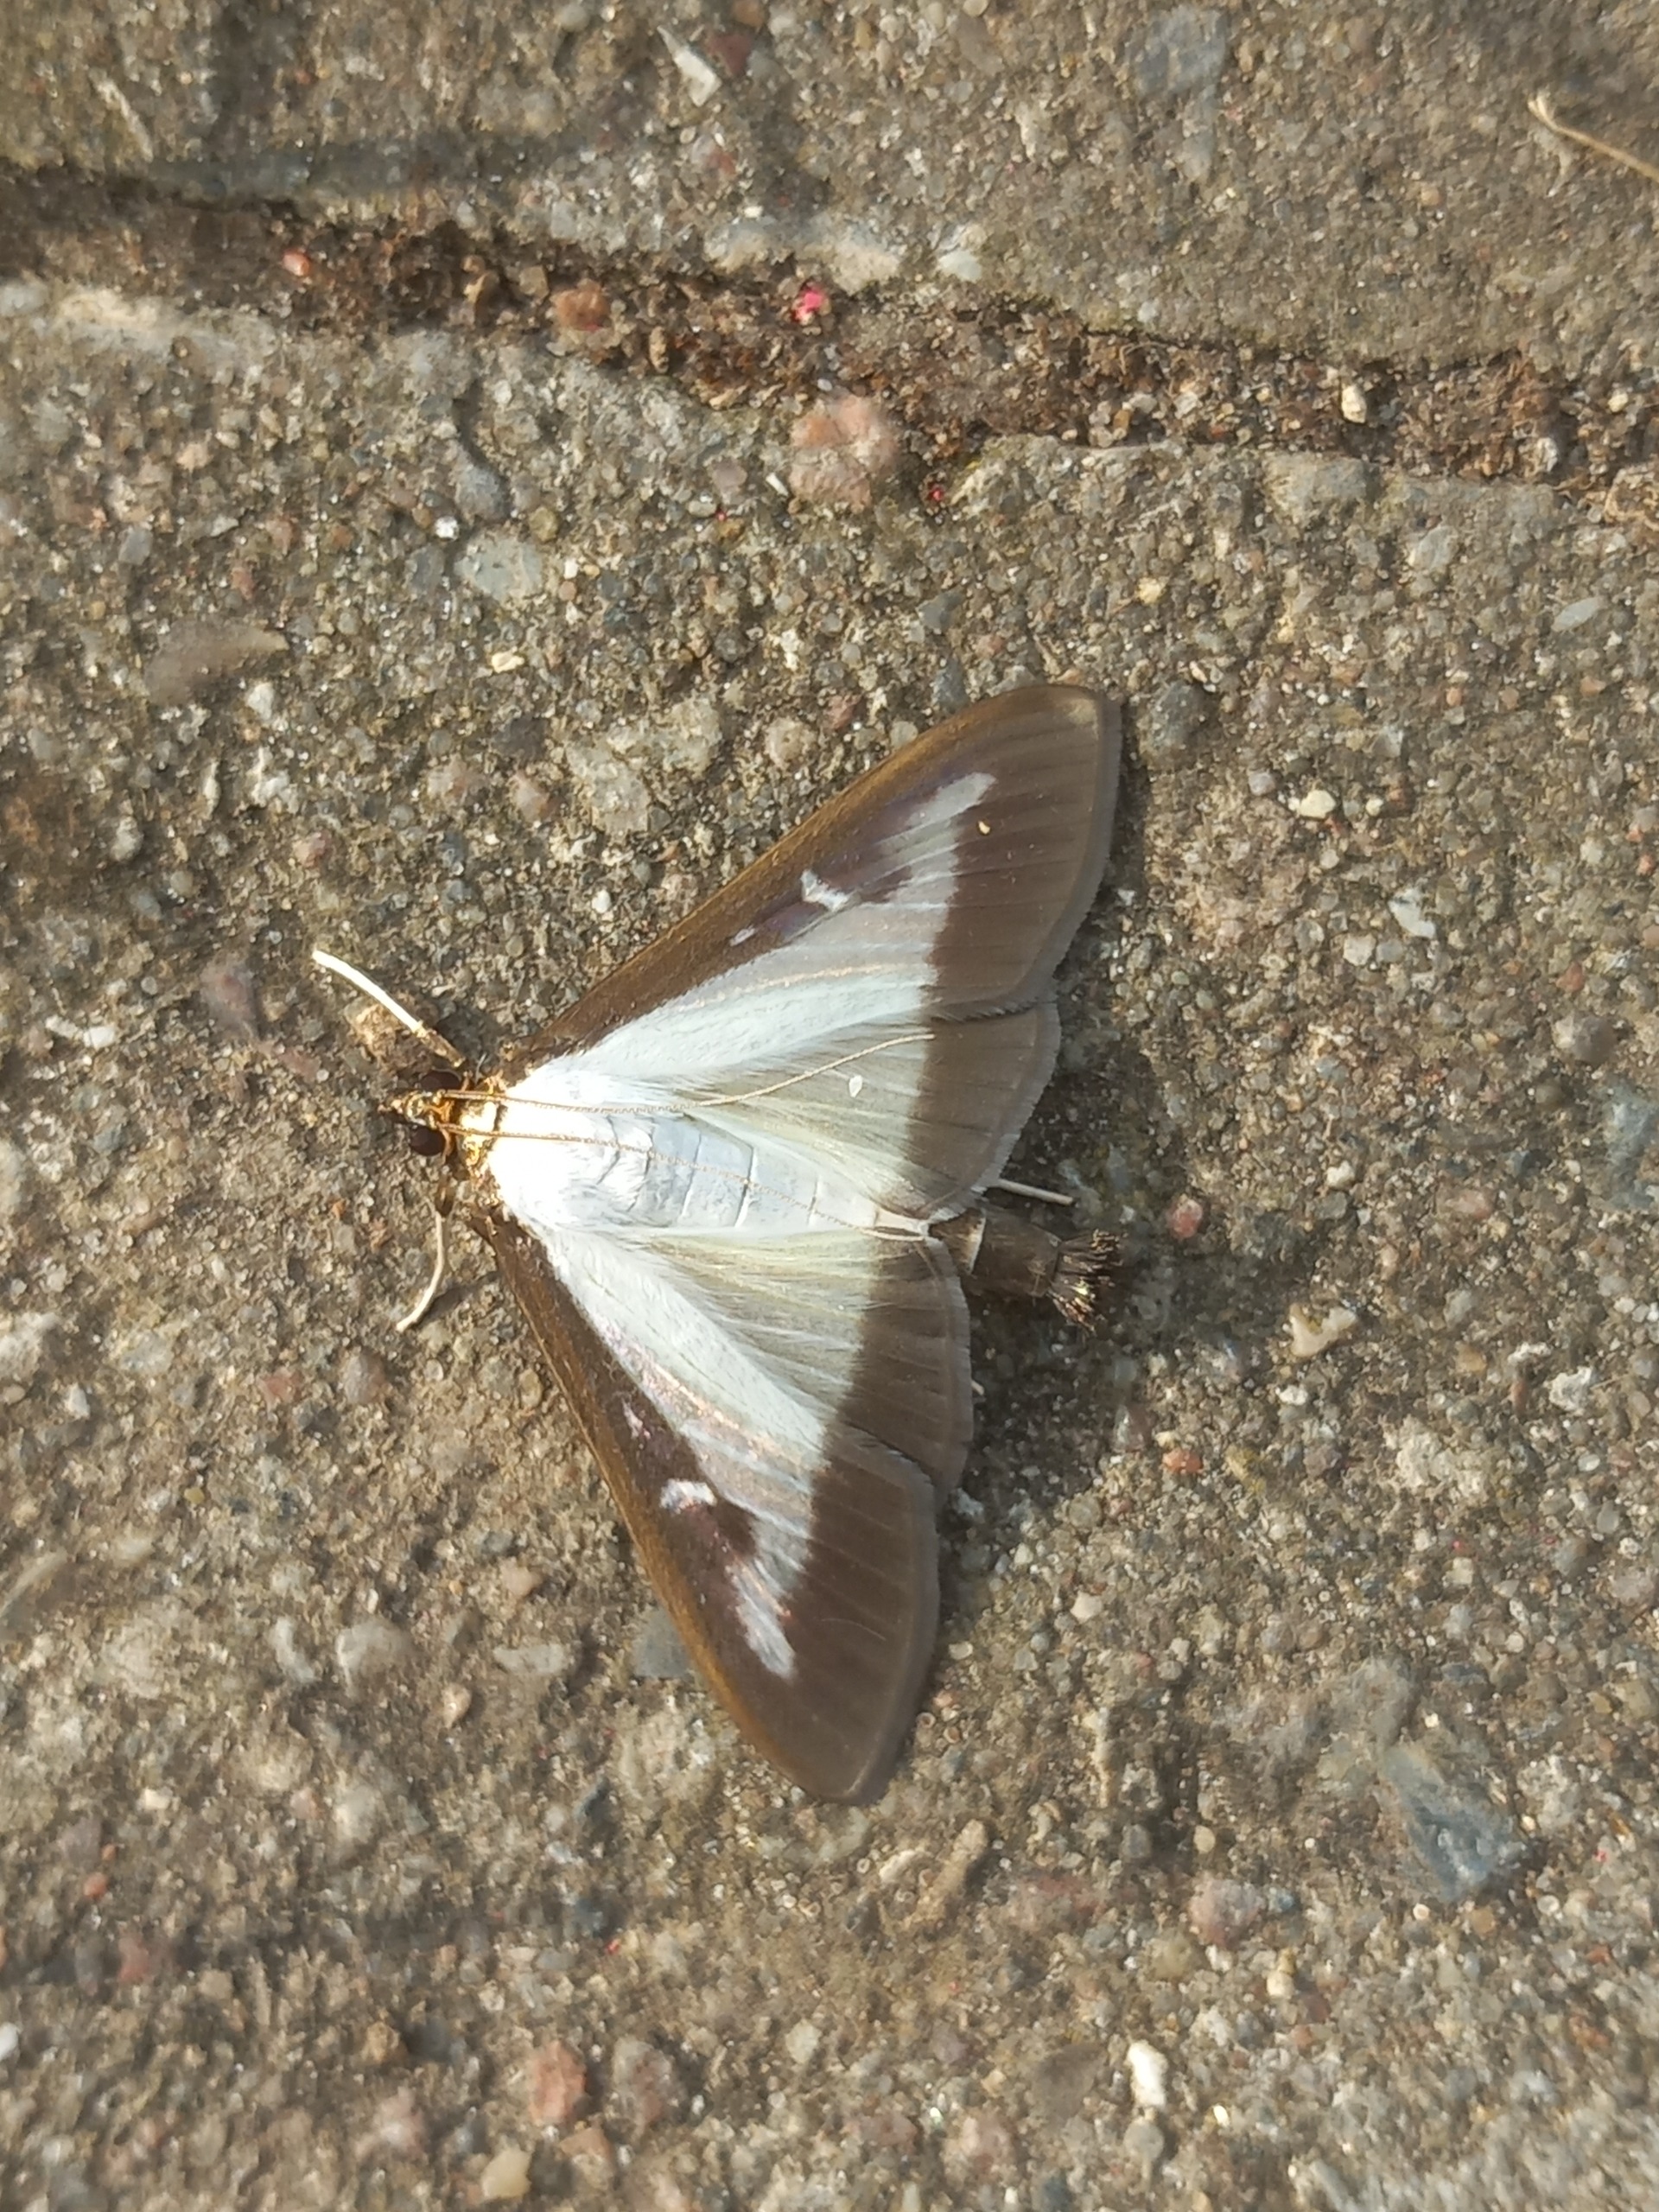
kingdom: Animalia
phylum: Arthropoda
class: Insecta
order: Lepidoptera
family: Crambidae
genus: Cydalima
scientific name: Cydalima perspectalis
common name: Buksbomhalvmøl
